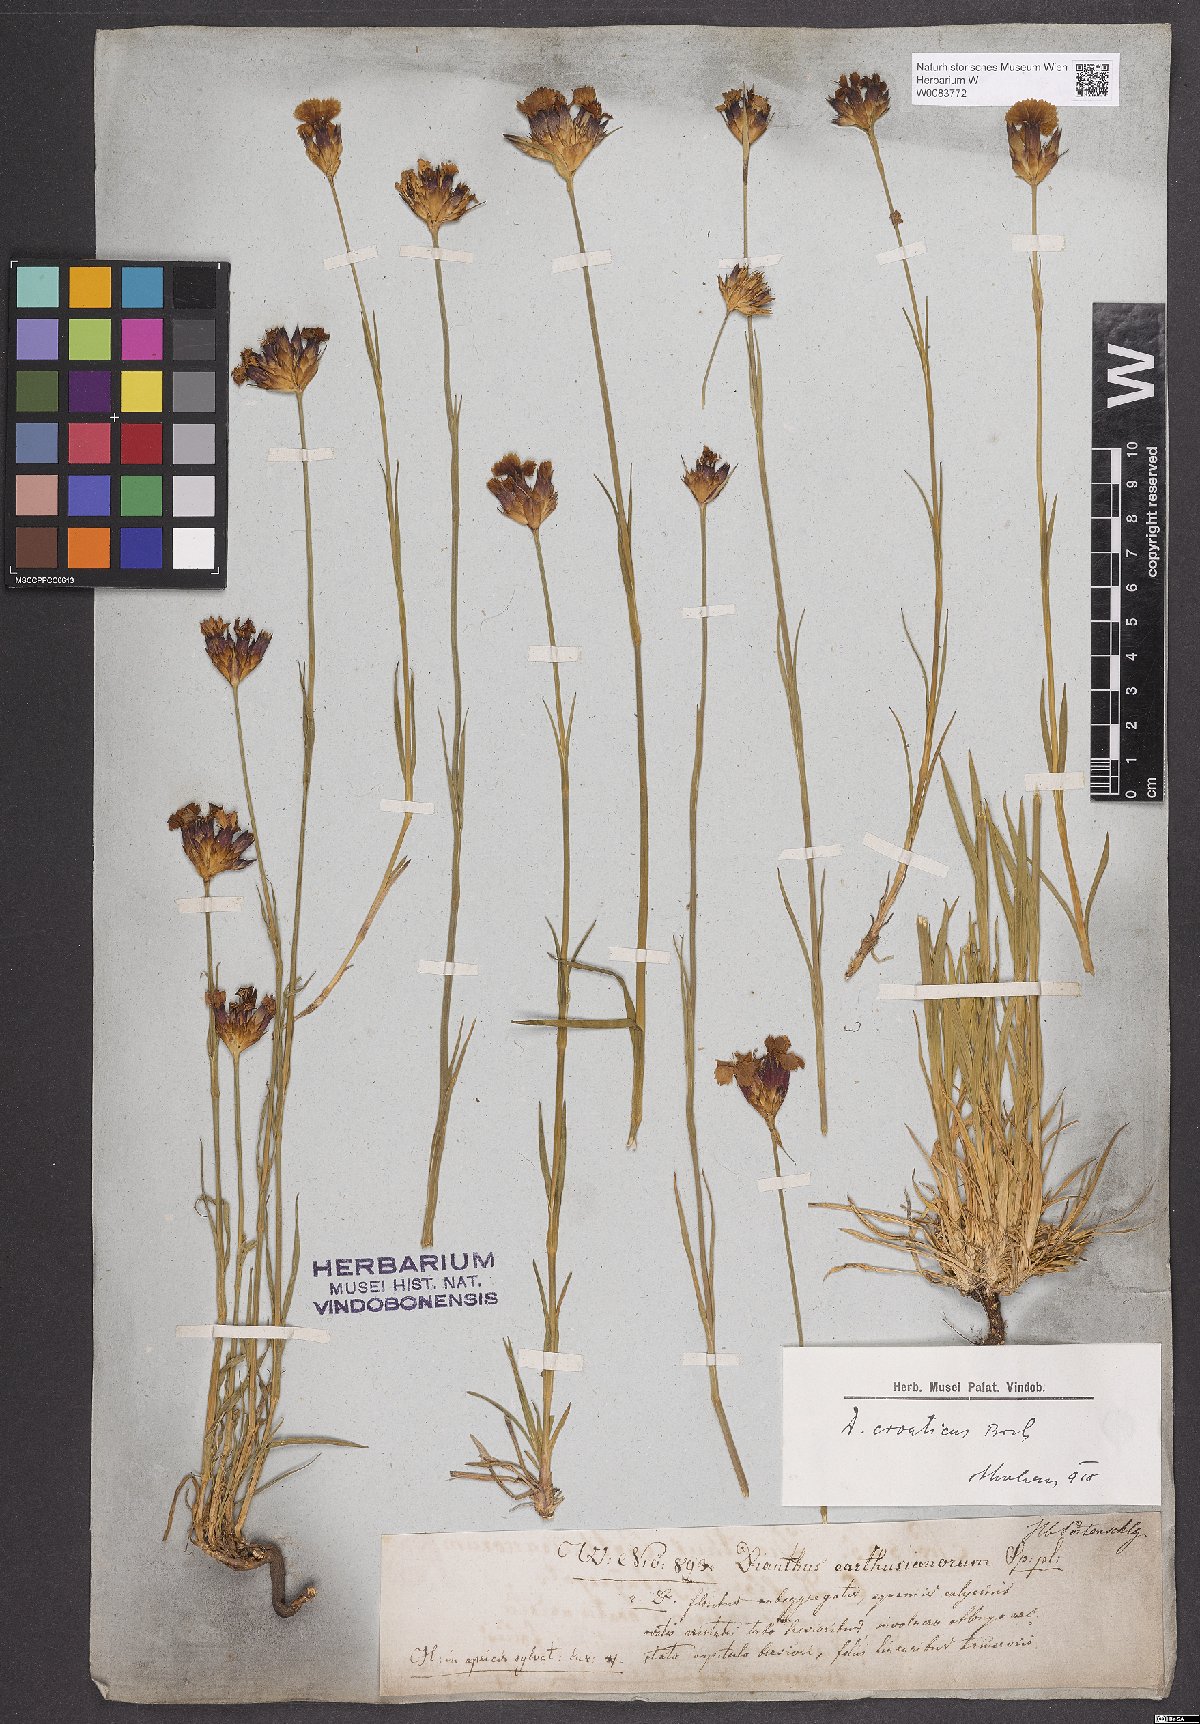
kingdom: Plantae
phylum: Tracheophyta
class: Magnoliopsida
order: Caryophyllales
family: Caryophyllaceae
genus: Dianthus
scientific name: Dianthus giganteus
